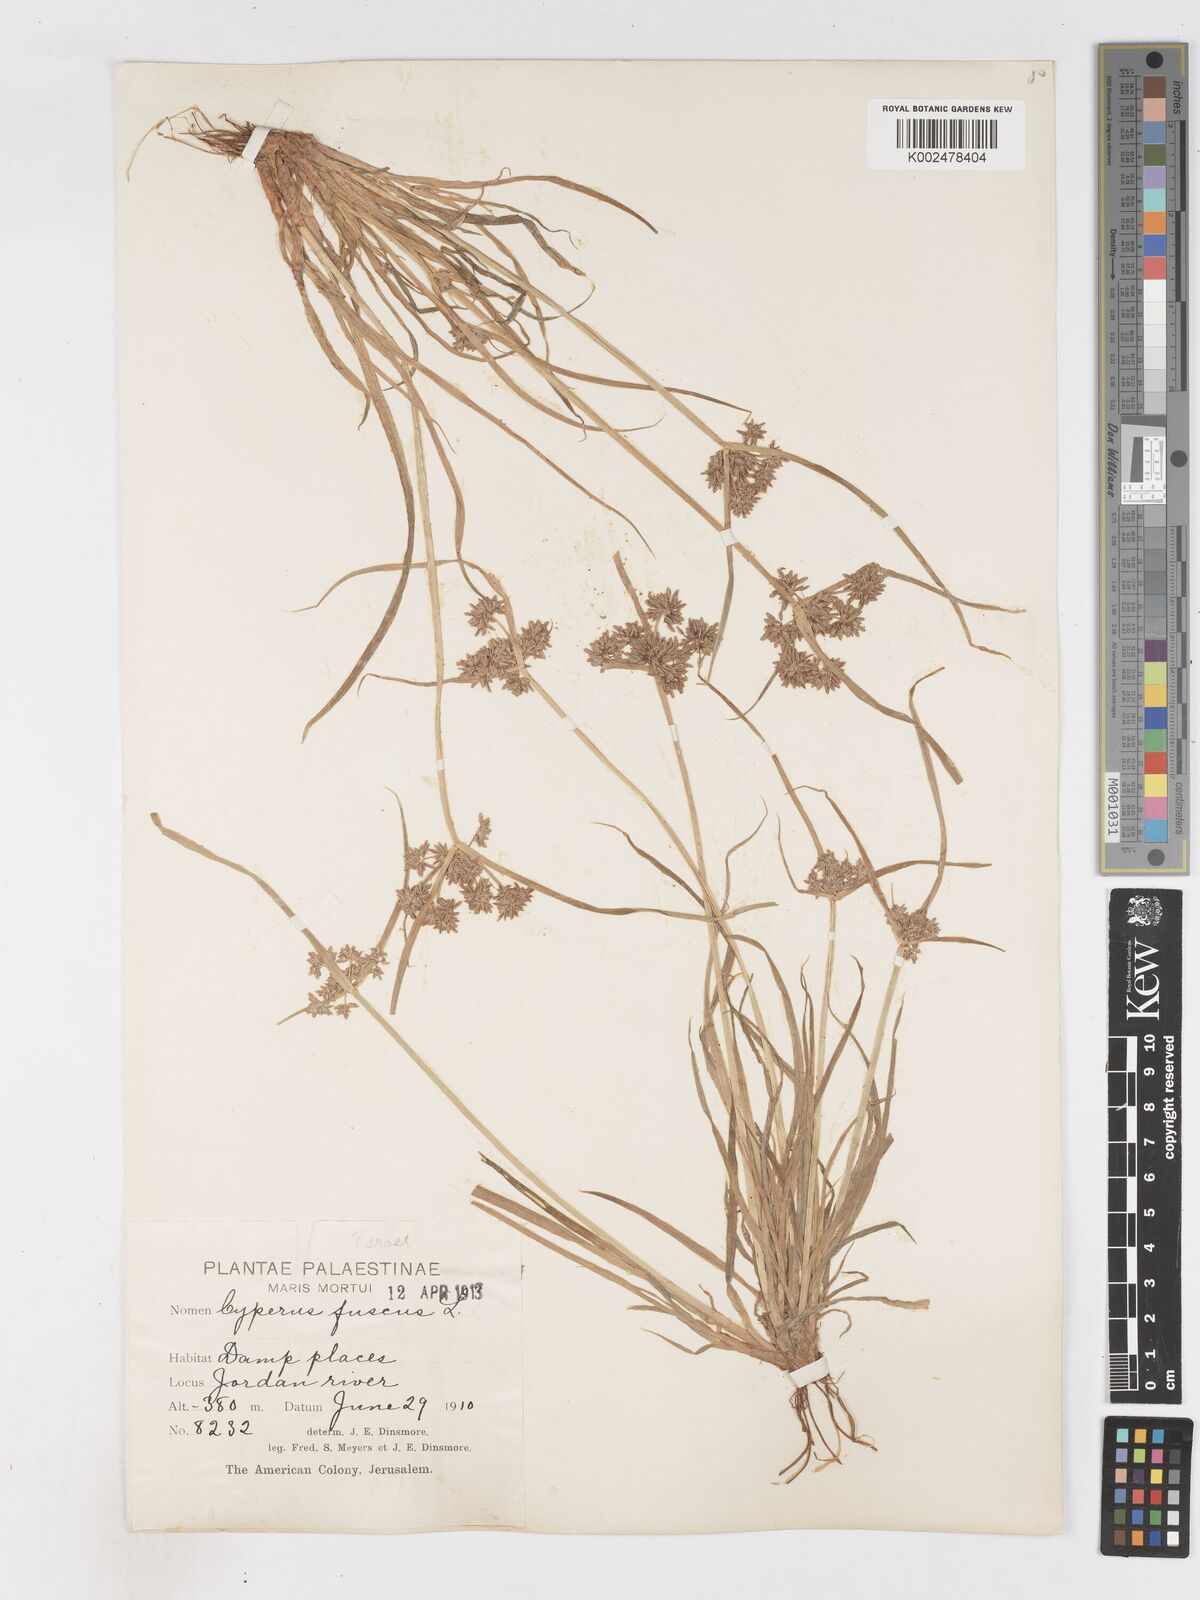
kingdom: Plantae
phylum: Tracheophyta
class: Liliopsida
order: Poales
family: Cyperaceae
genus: Cyperus
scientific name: Cyperus fuscus
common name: Brown galingale
